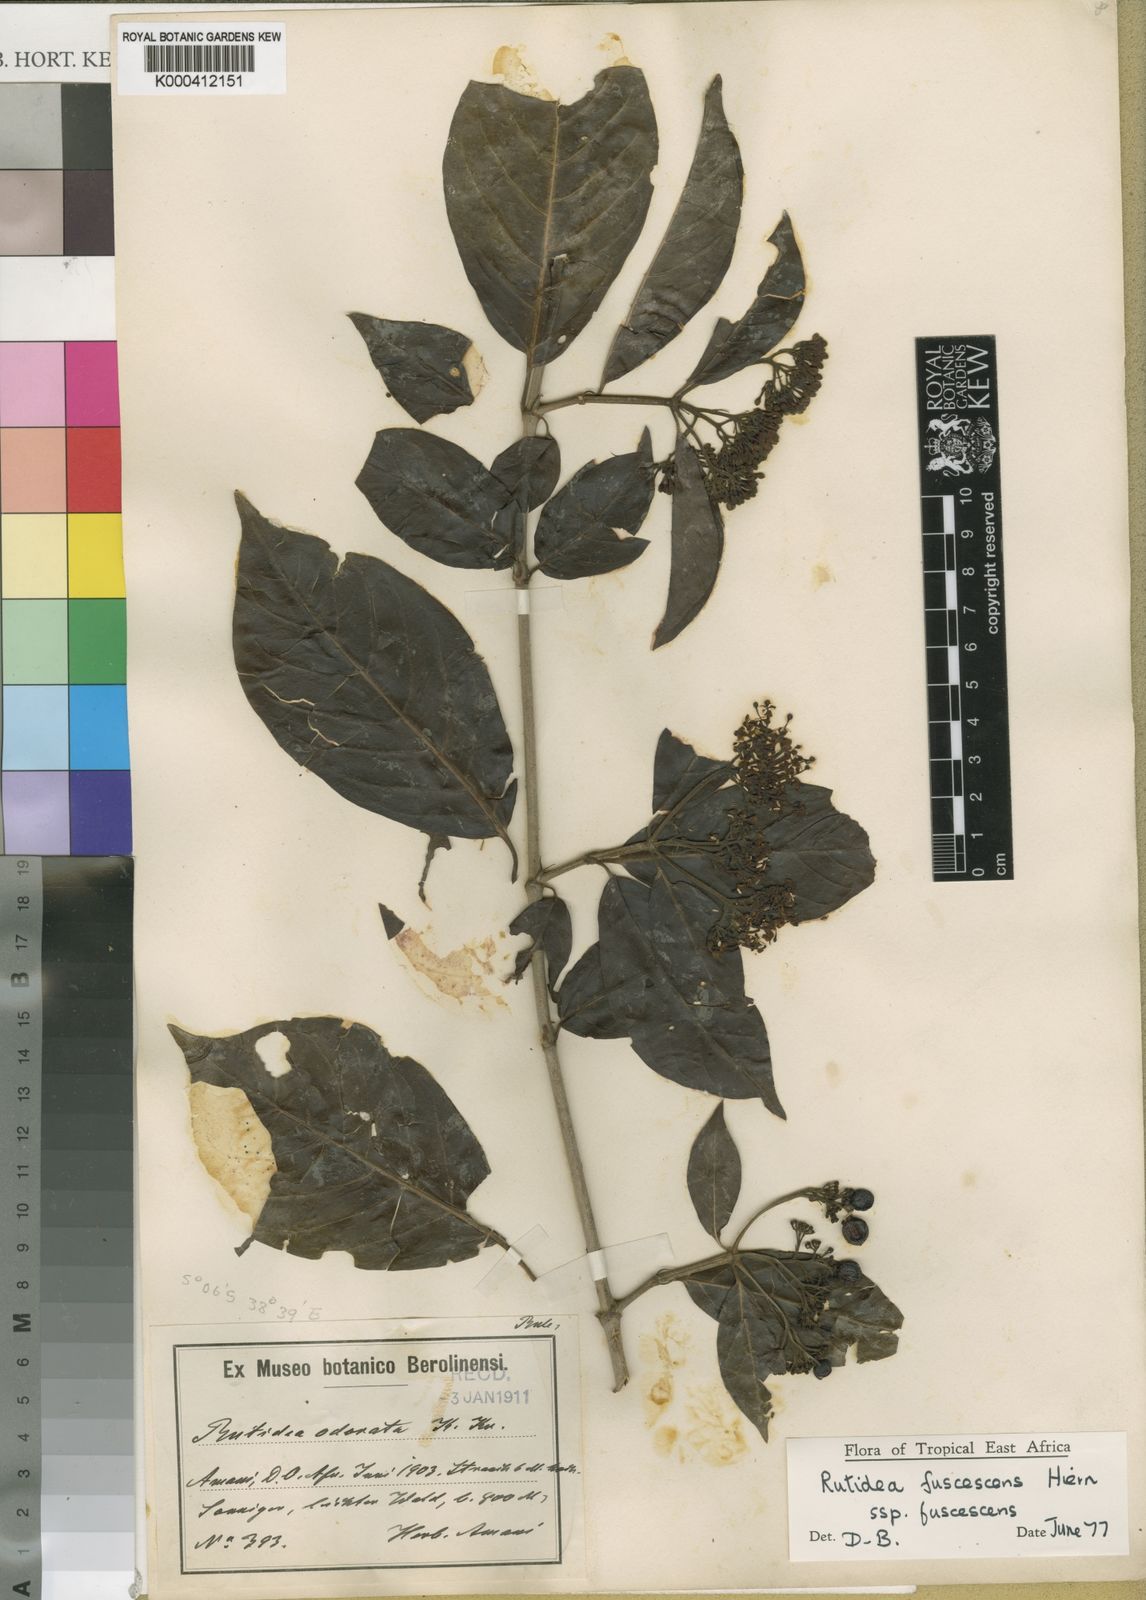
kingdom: Plantae
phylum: Tracheophyta
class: Magnoliopsida
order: Gentianales
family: Rubiaceae
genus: Rutidea
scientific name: Rutidea fuscescens
